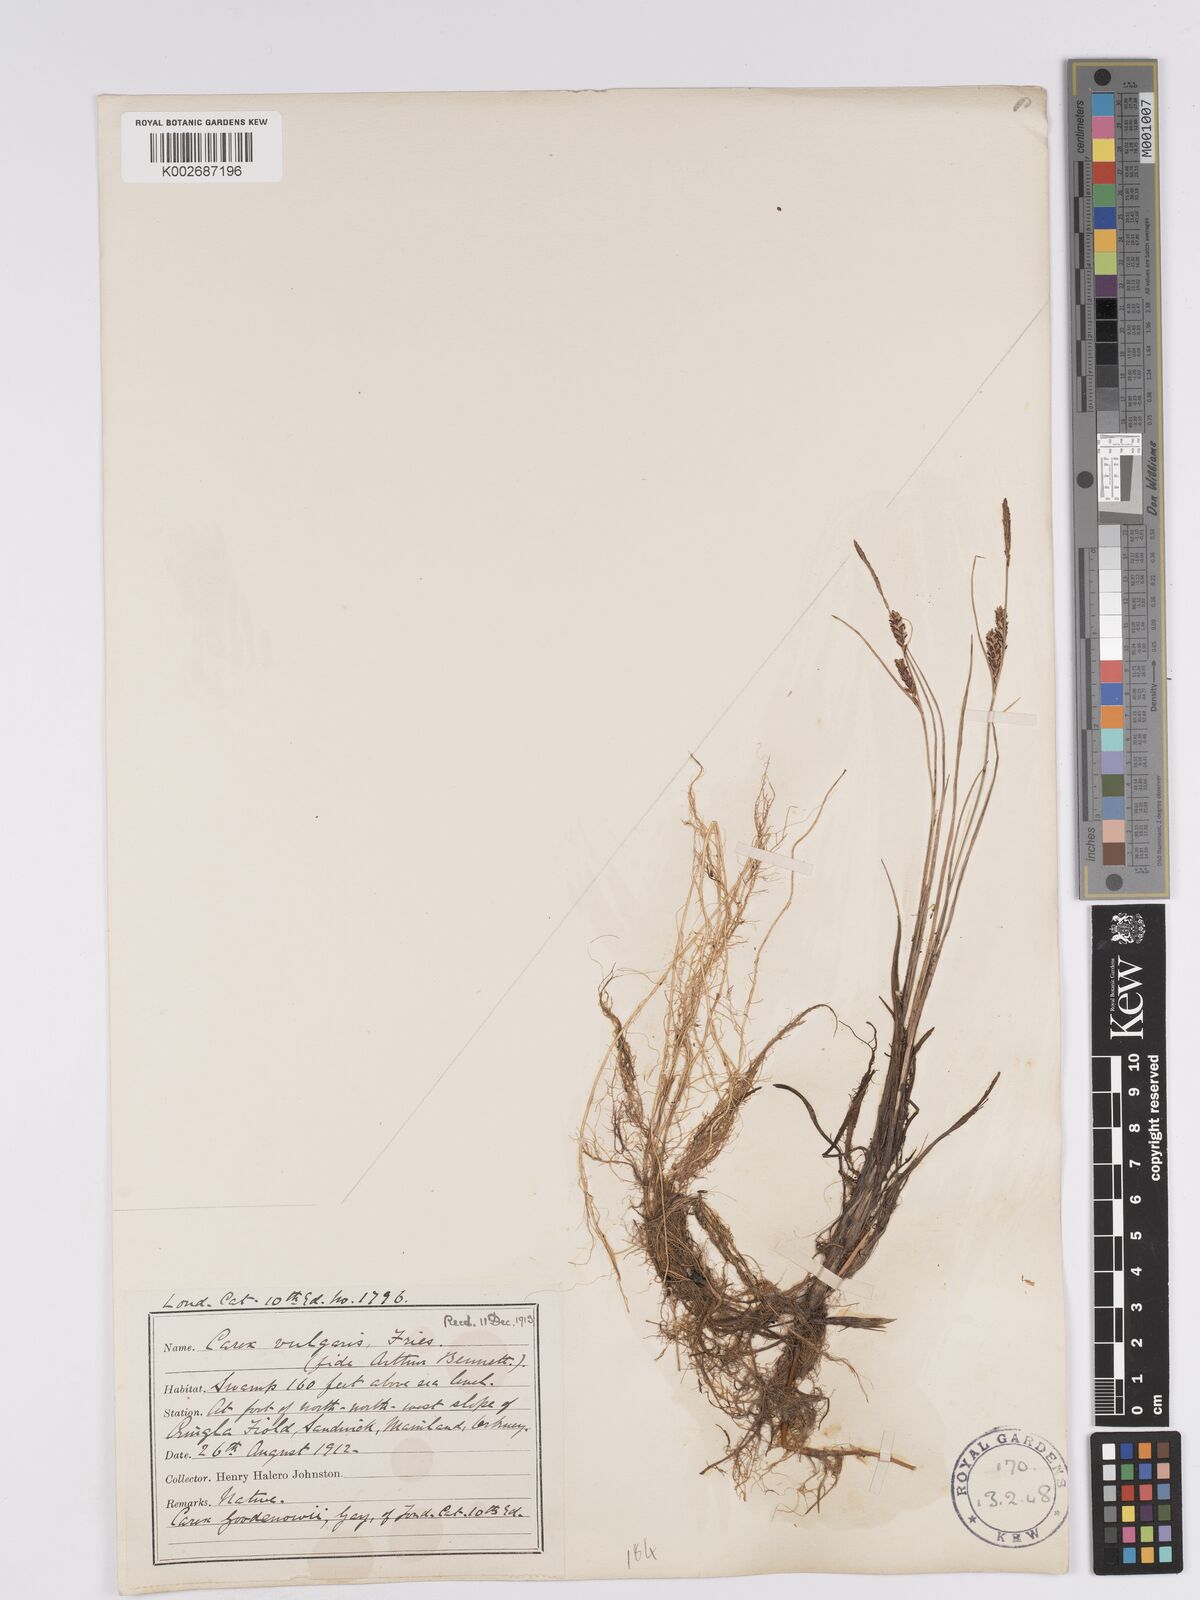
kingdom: Plantae
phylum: Tracheophyta
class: Liliopsida
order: Poales
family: Cyperaceae
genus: Carex
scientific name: Carex nigra
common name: Common sedge
